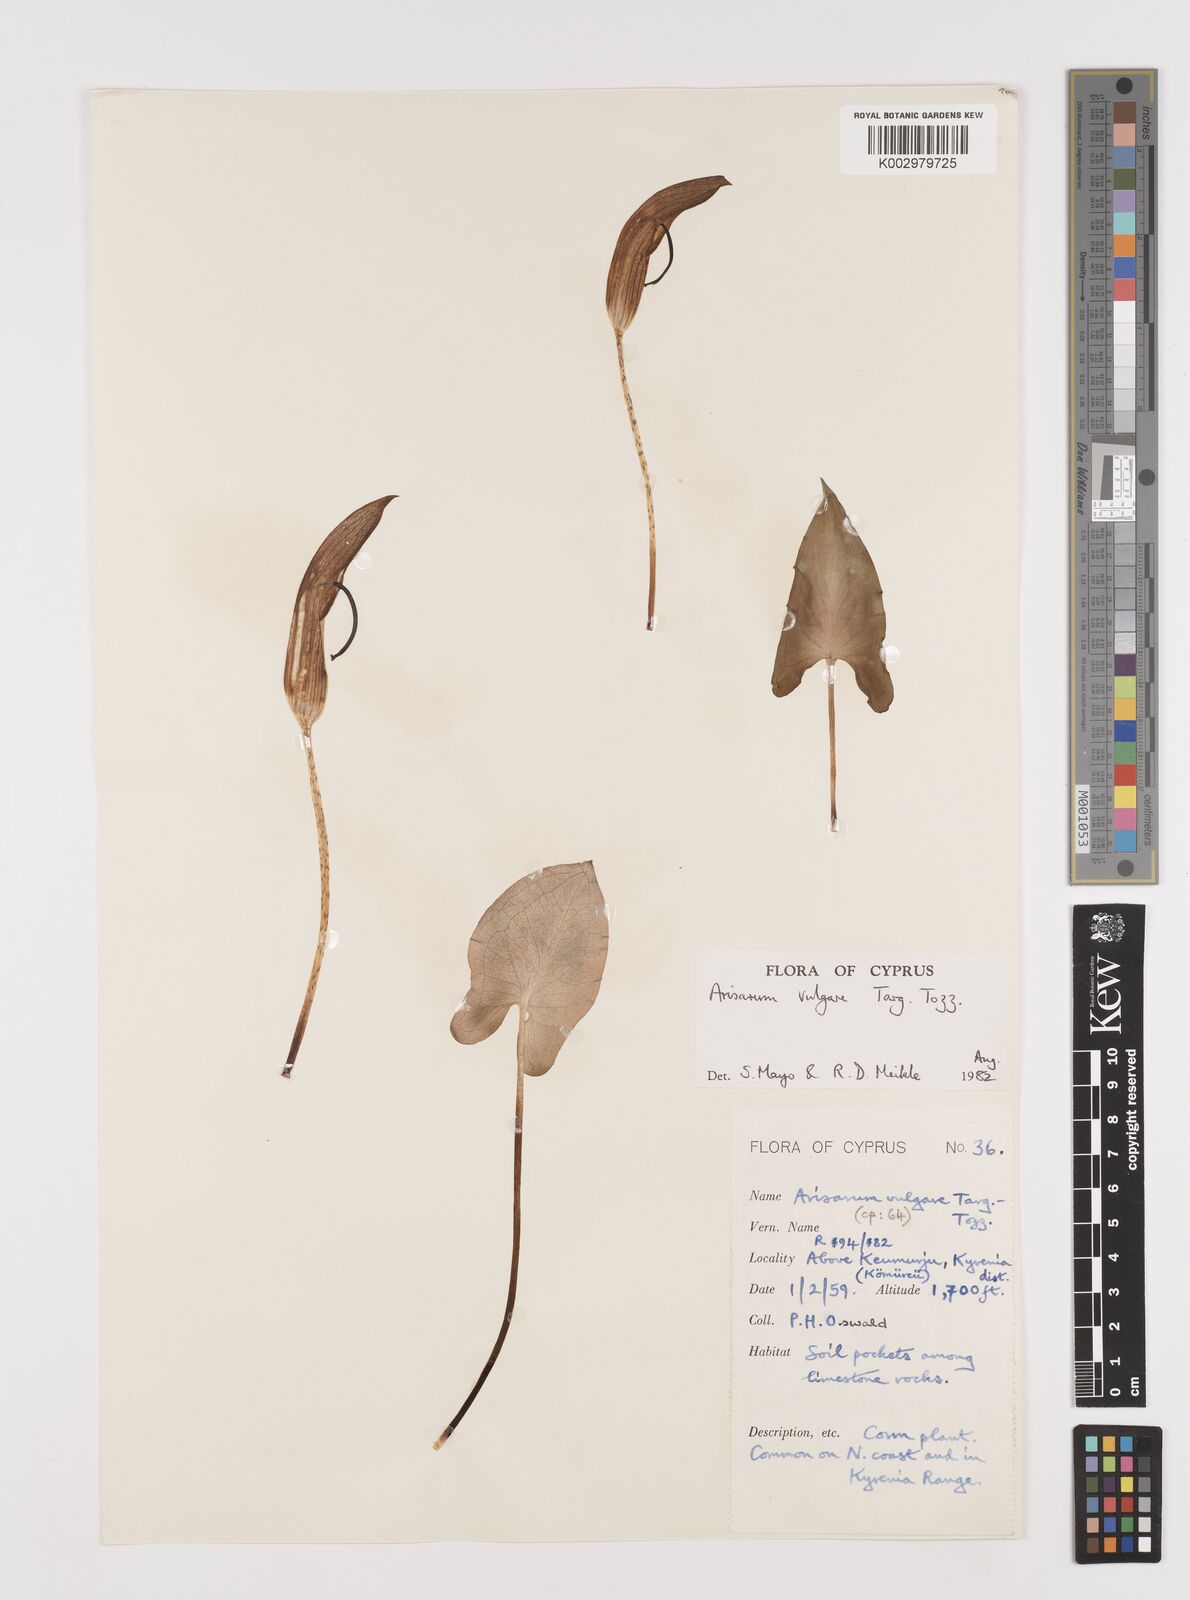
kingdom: Plantae
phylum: Tracheophyta
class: Liliopsida
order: Alismatales
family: Araceae
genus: Arisarum
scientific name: Arisarum vulgare
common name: Common arisarum
